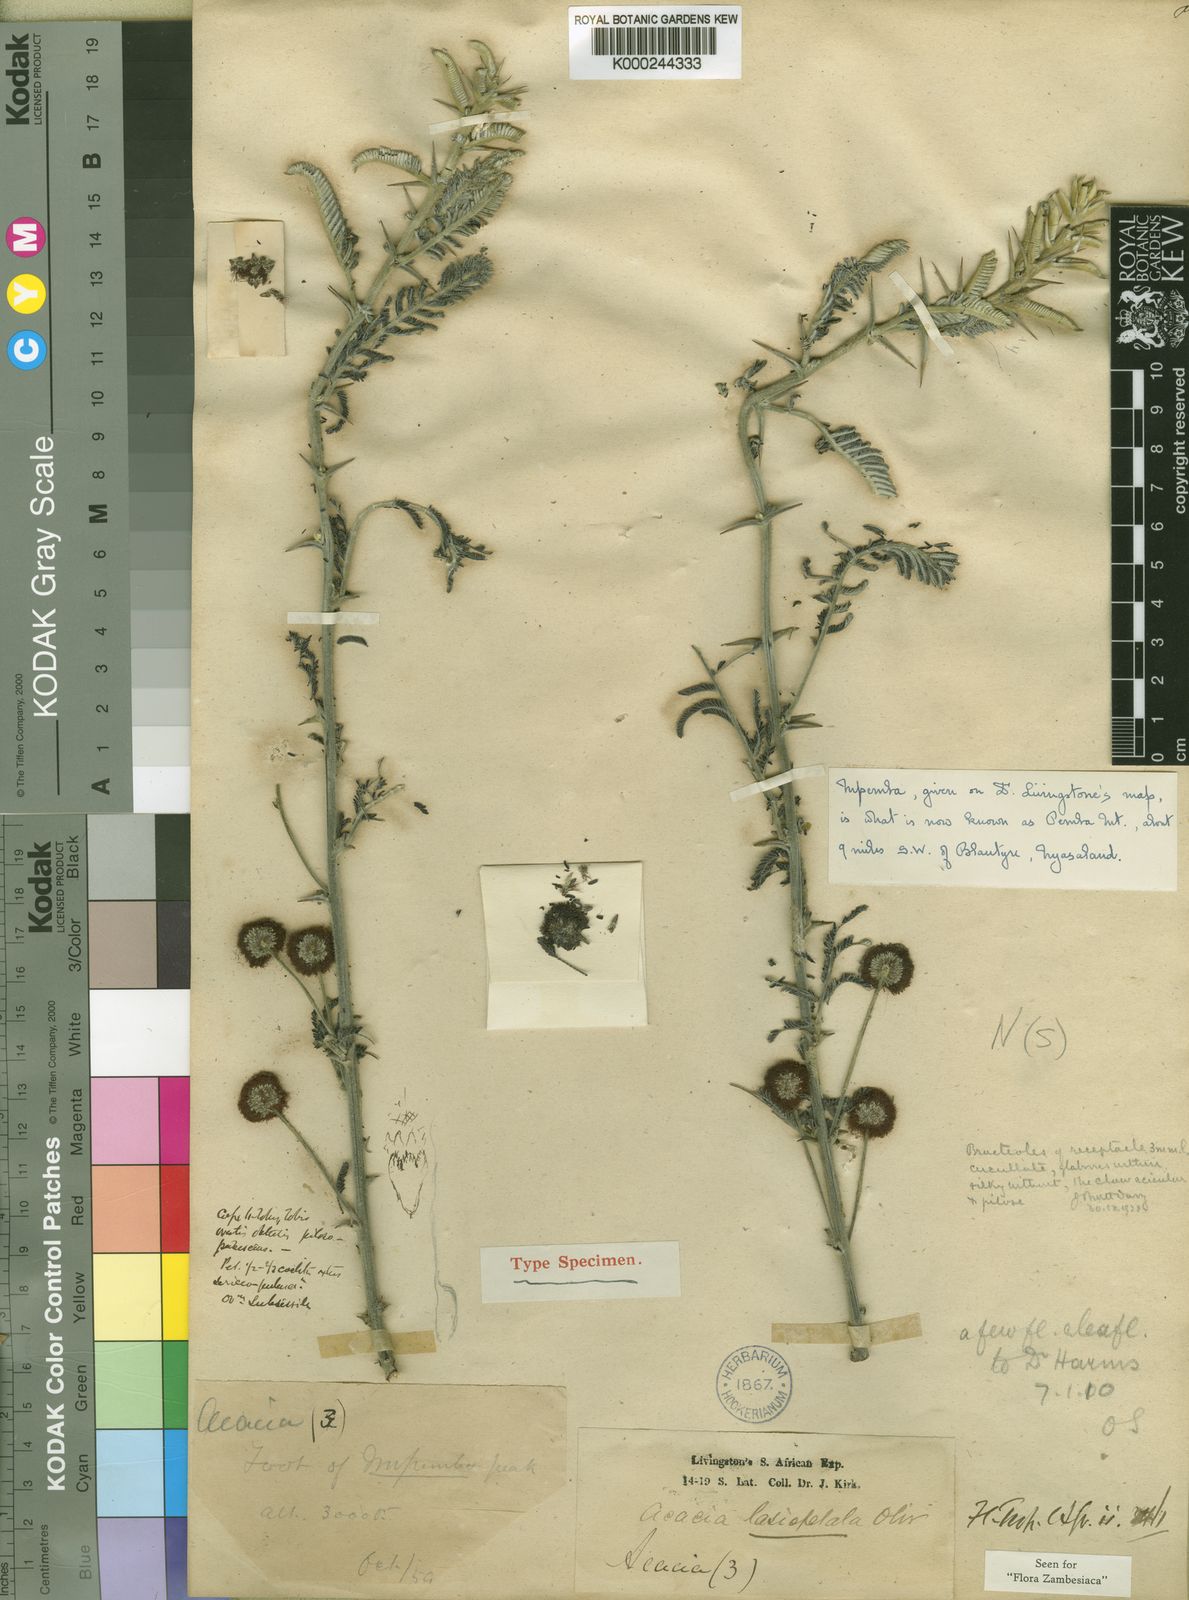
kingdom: Plantae
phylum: Tracheophyta
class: Magnoliopsida
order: Fabales
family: Fabaceae
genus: Vachellia
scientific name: Vachellia lasiopetala
